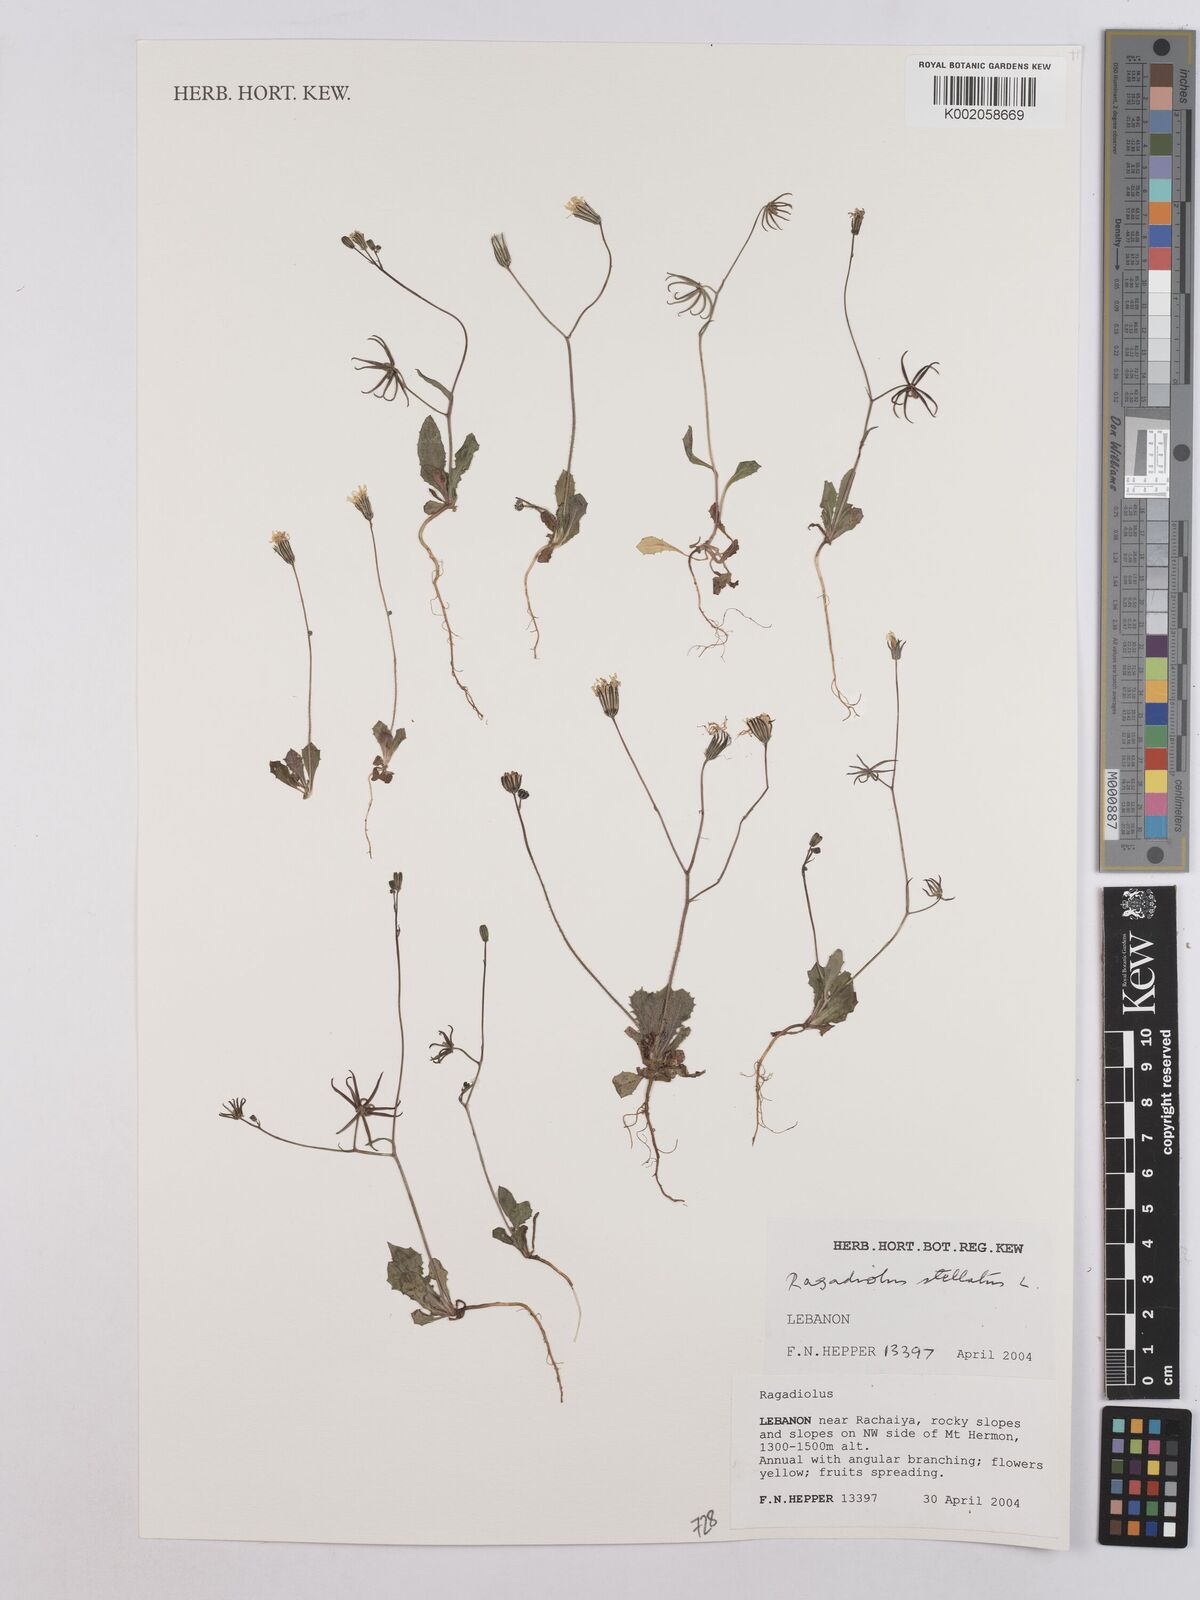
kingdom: Plantae
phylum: Tracheophyta
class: Magnoliopsida
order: Asterales
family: Asteraceae
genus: Rhagadiolus
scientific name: Rhagadiolus stellatus
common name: Star hawkbit
